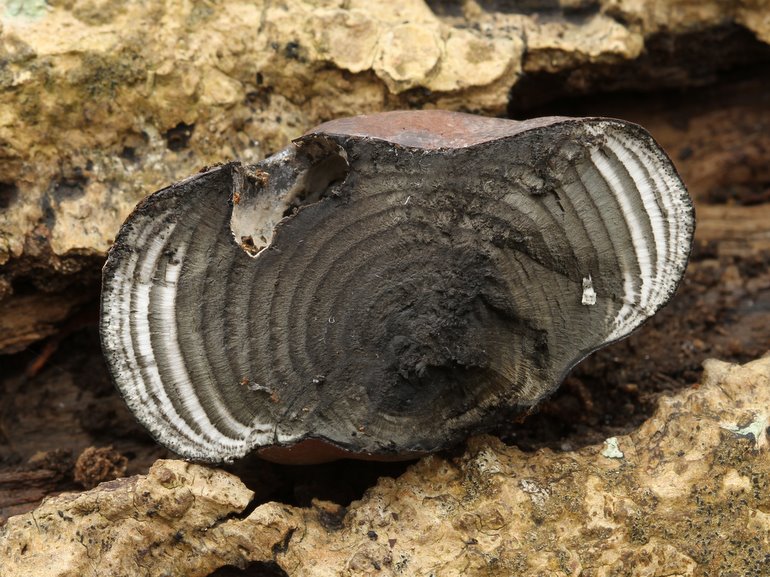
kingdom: Fungi
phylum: Ascomycota
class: Sordariomycetes
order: Xylariales
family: Hypoxylaceae
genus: Daldinia
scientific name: Daldinia concentrica
